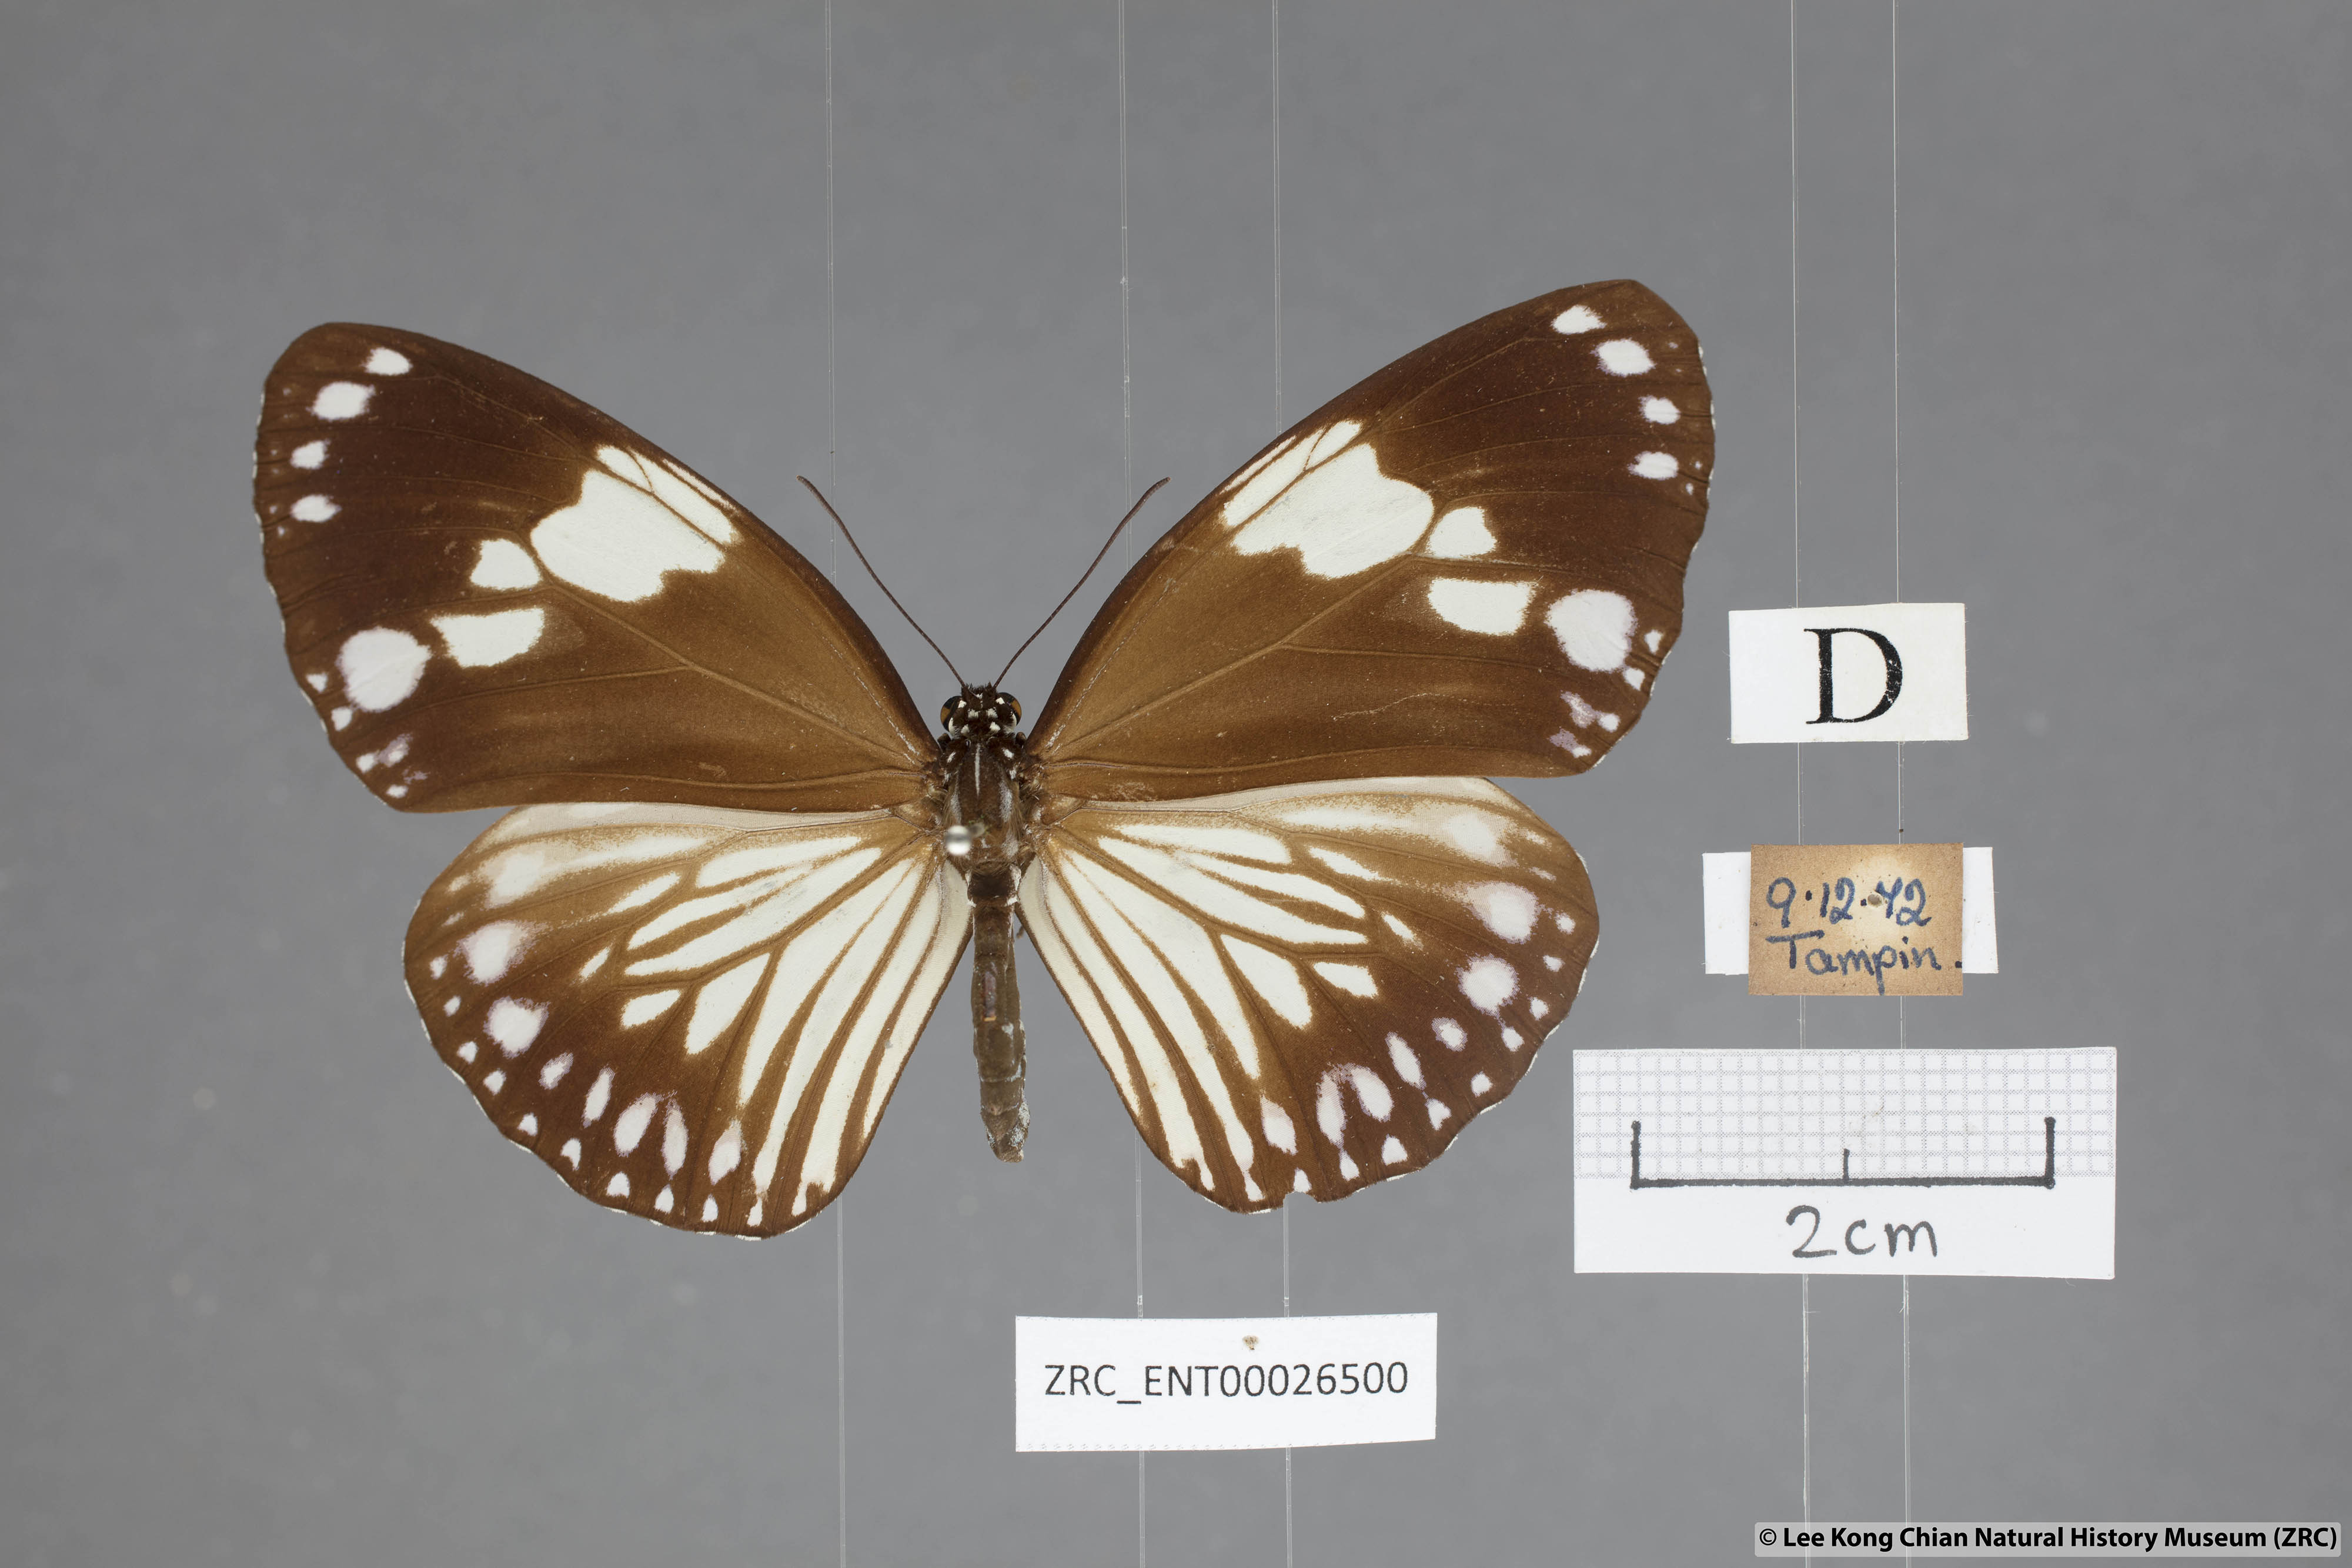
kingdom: Animalia
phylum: Arthropoda
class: Insecta
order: Lepidoptera
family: Nymphalidae
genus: Euploea
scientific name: Euploea radamanthus
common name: Magpie crow butterfly
